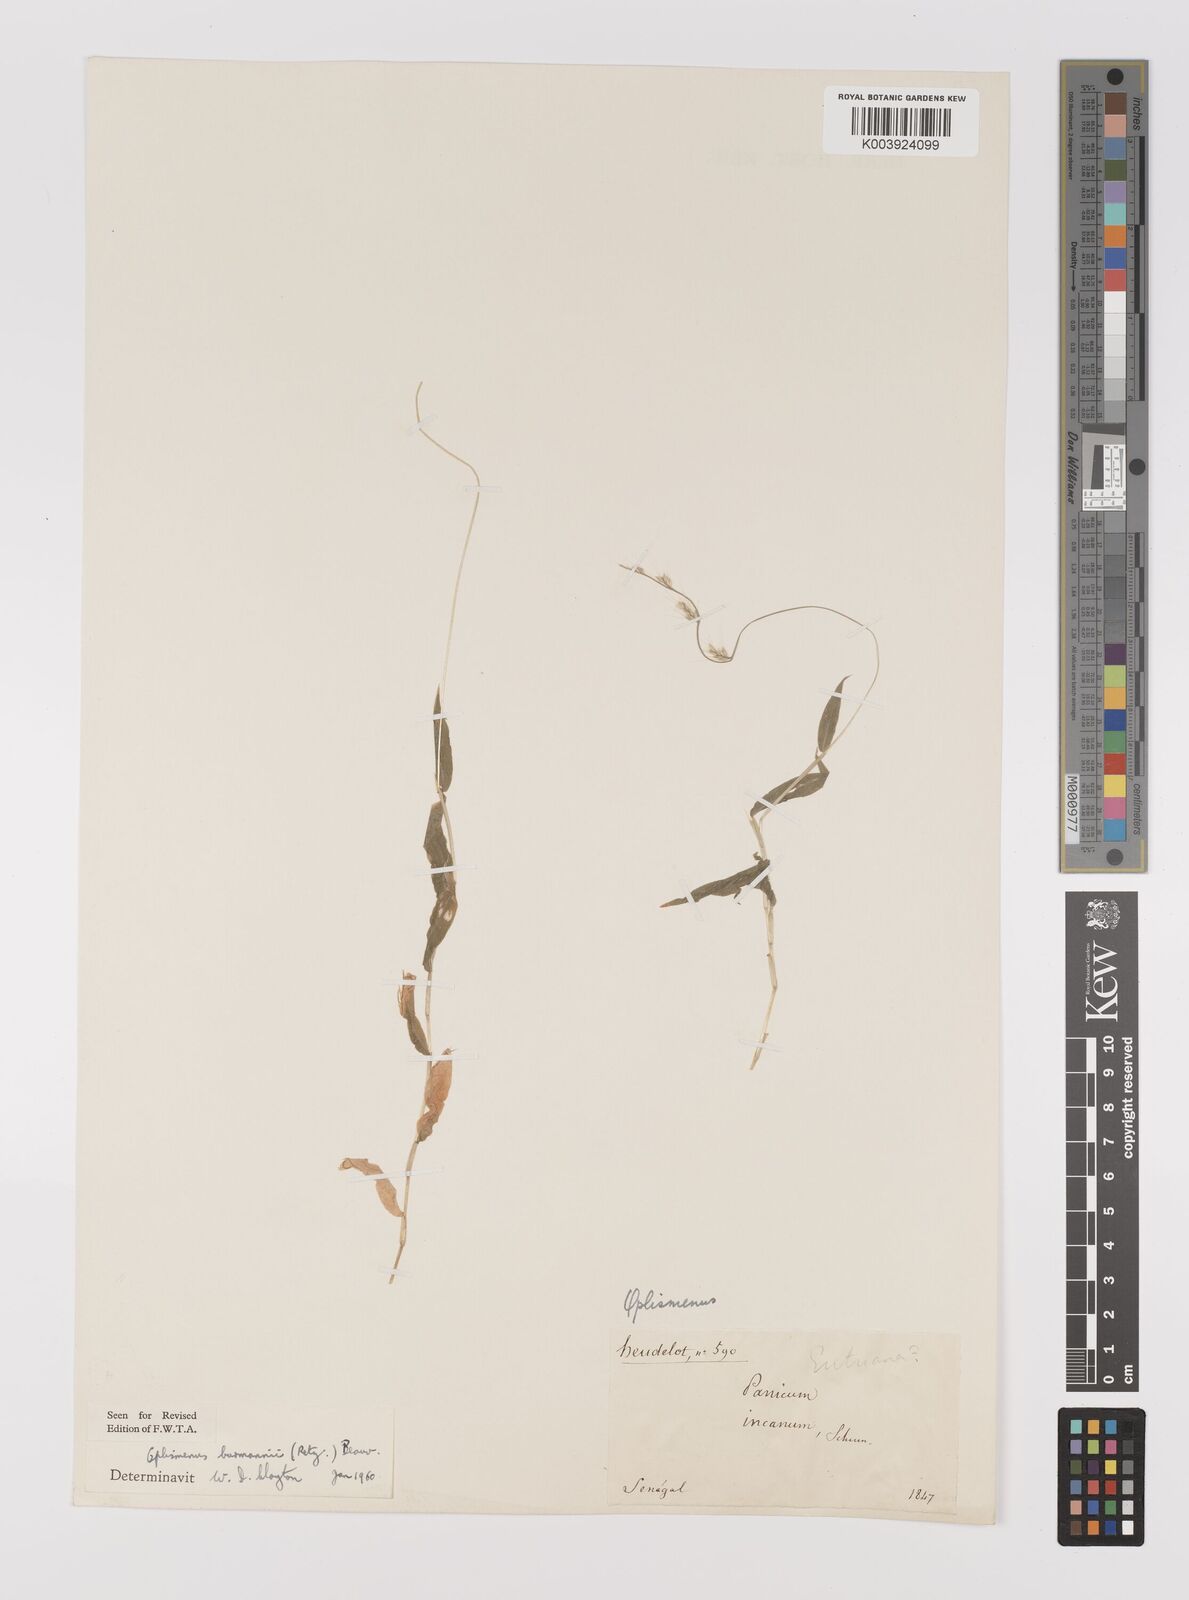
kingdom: Plantae
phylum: Tracheophyta
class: Liliopsida
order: Poales
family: Poaceae
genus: Oplismenus
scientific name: Oplismenus burmanni
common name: Burmann's basketgrass
